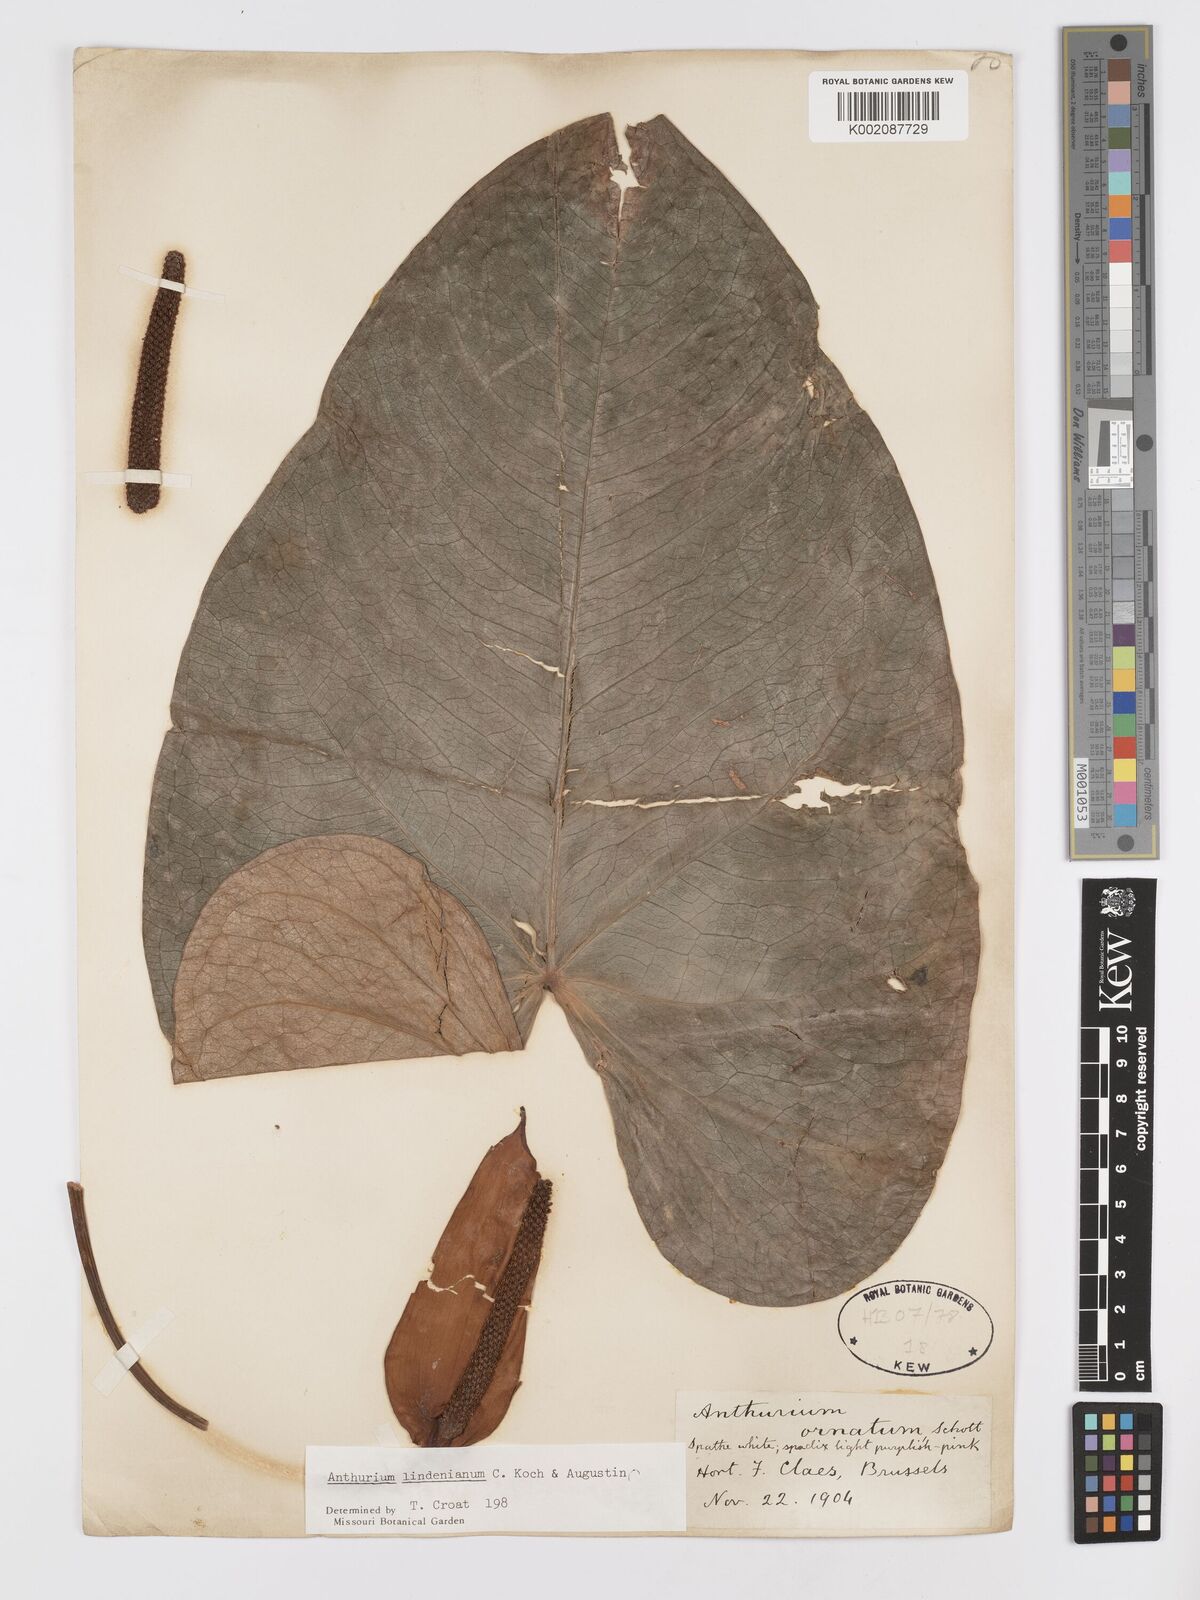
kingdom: Plantae
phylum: Tracheophyta
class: Liliopsida
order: Alismatales
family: Araceae
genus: Anthurium
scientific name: Anthurium lindenianum
